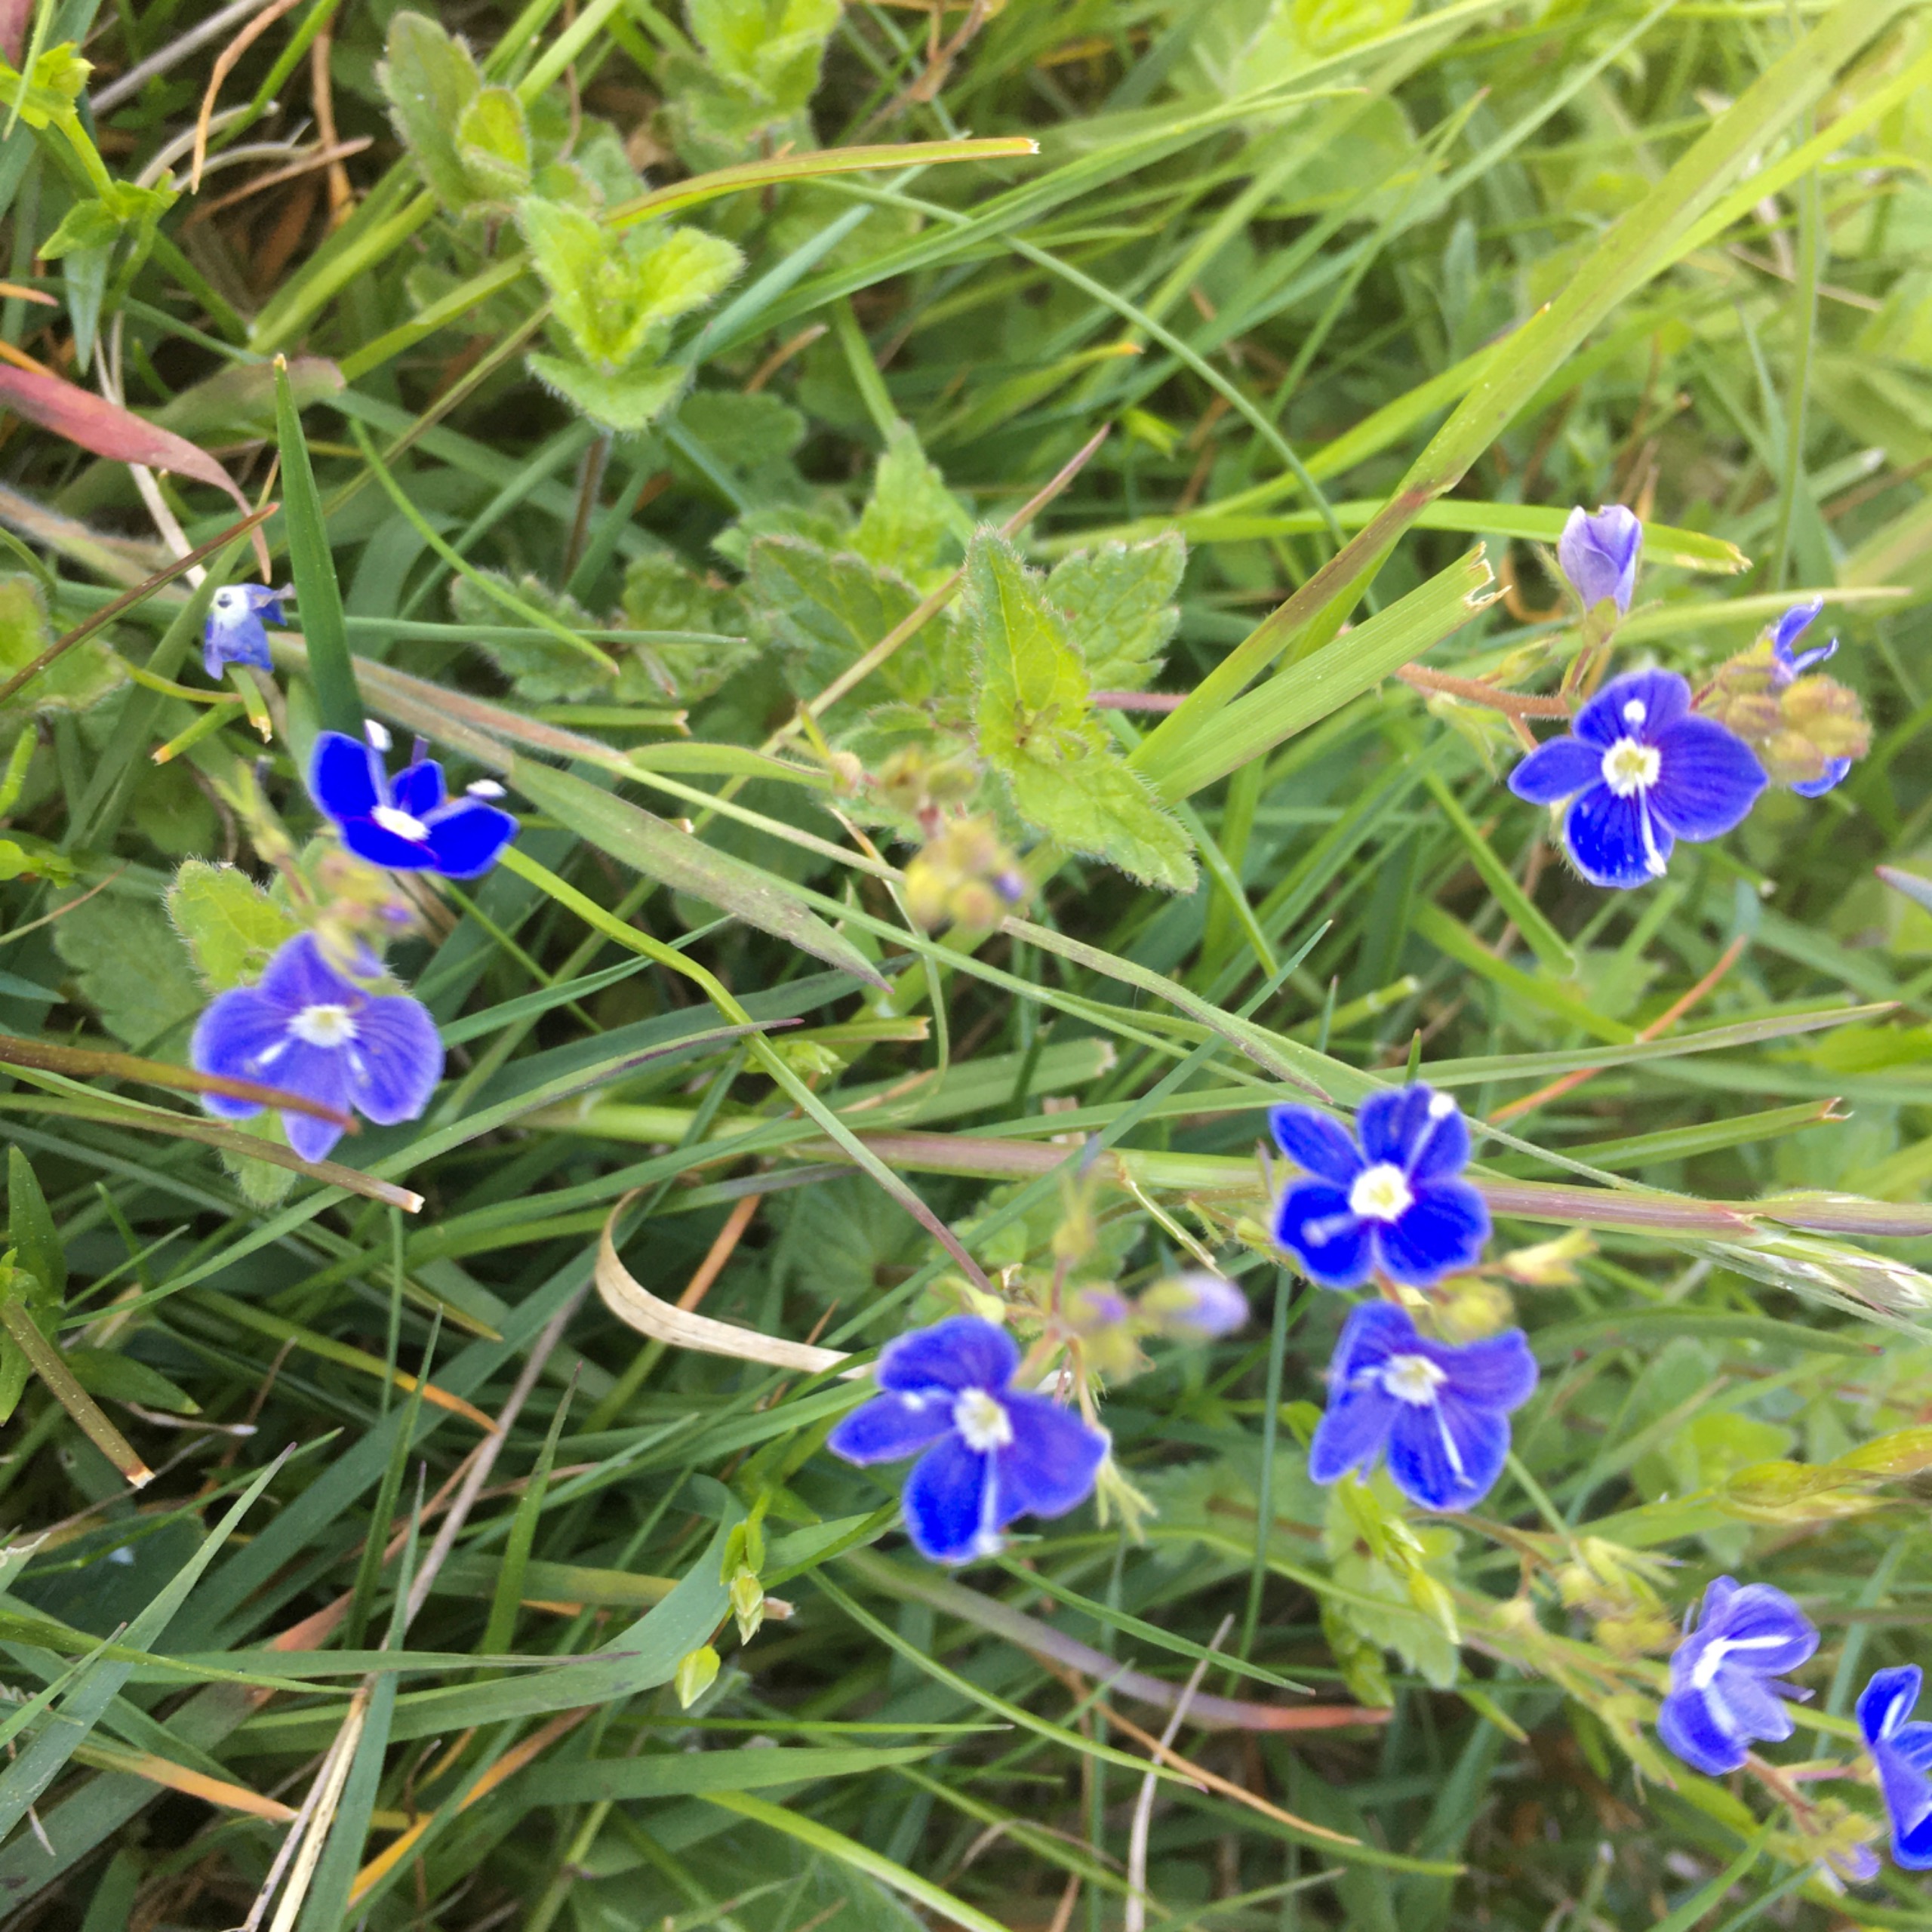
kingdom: Plantae
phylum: Tracheophyta
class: Magnoliopsida
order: Lamiales
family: Plantaginaceae
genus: Veronica
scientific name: Veronica chamaedrys
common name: Tveskægget ærenpris
